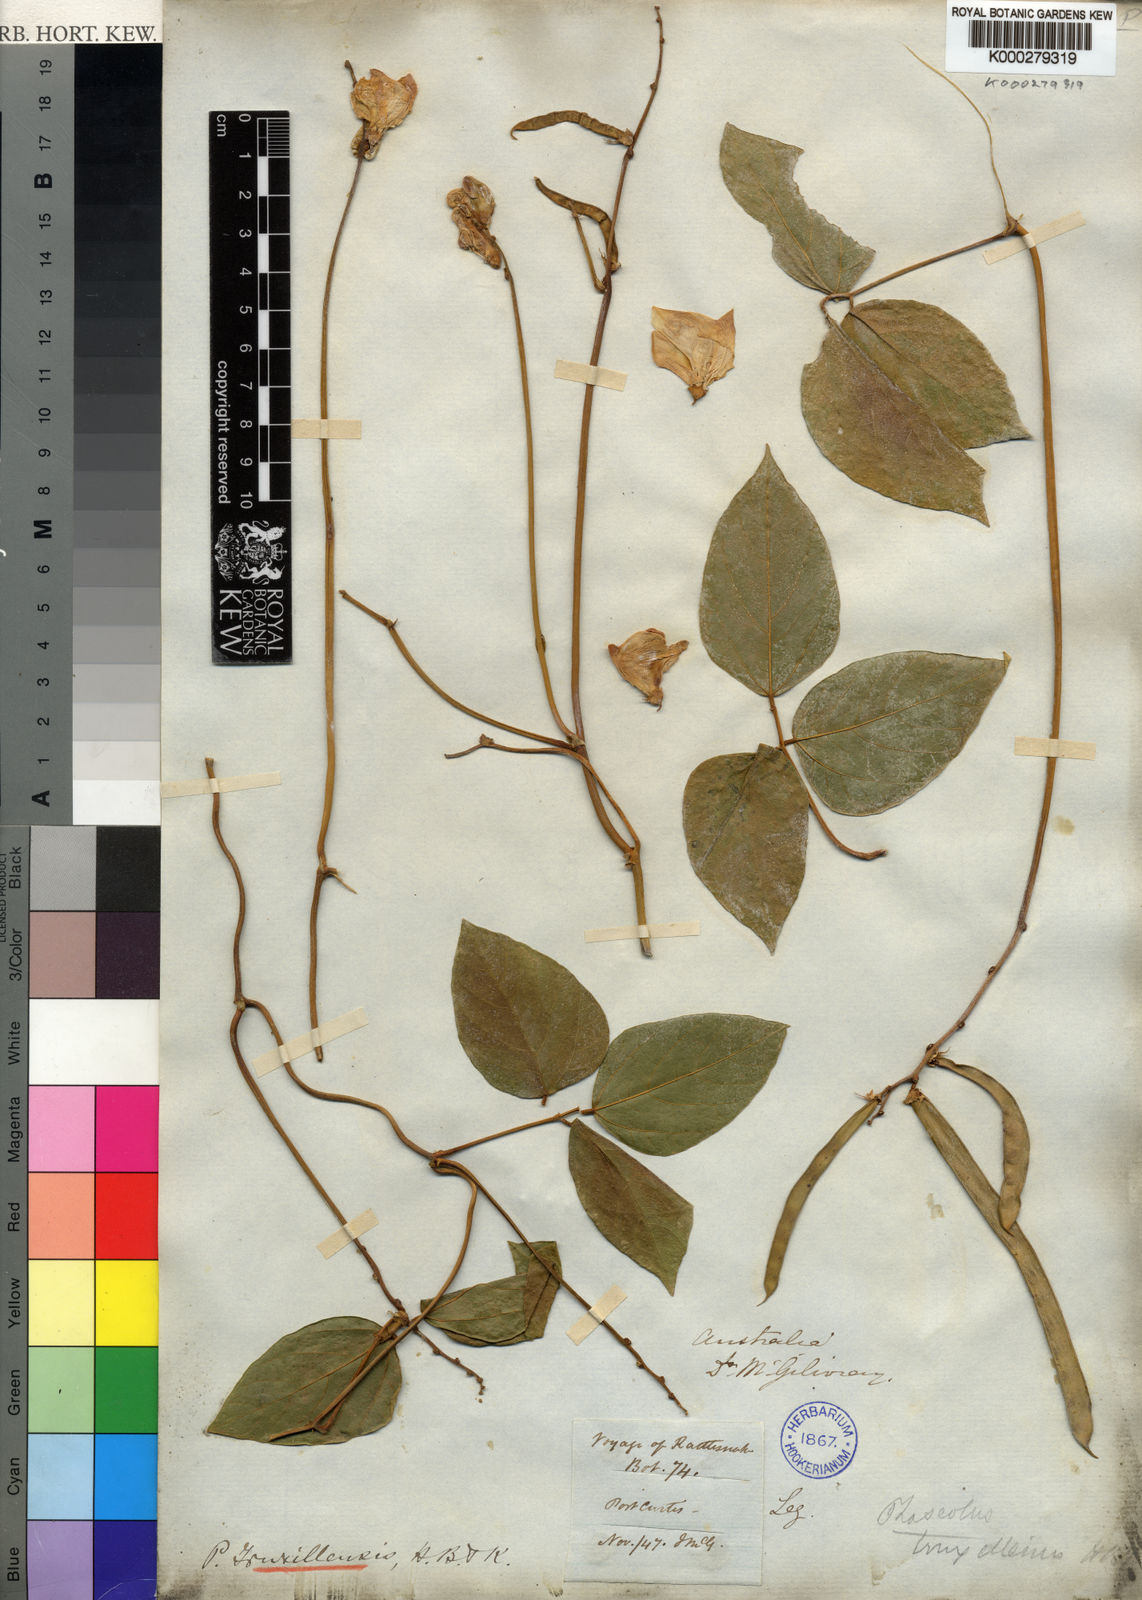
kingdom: Plantae
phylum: Tracheophyta
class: Magnoliopsida
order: Fabales
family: Fabaceae
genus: Vigna
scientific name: Vigna truxillensis
